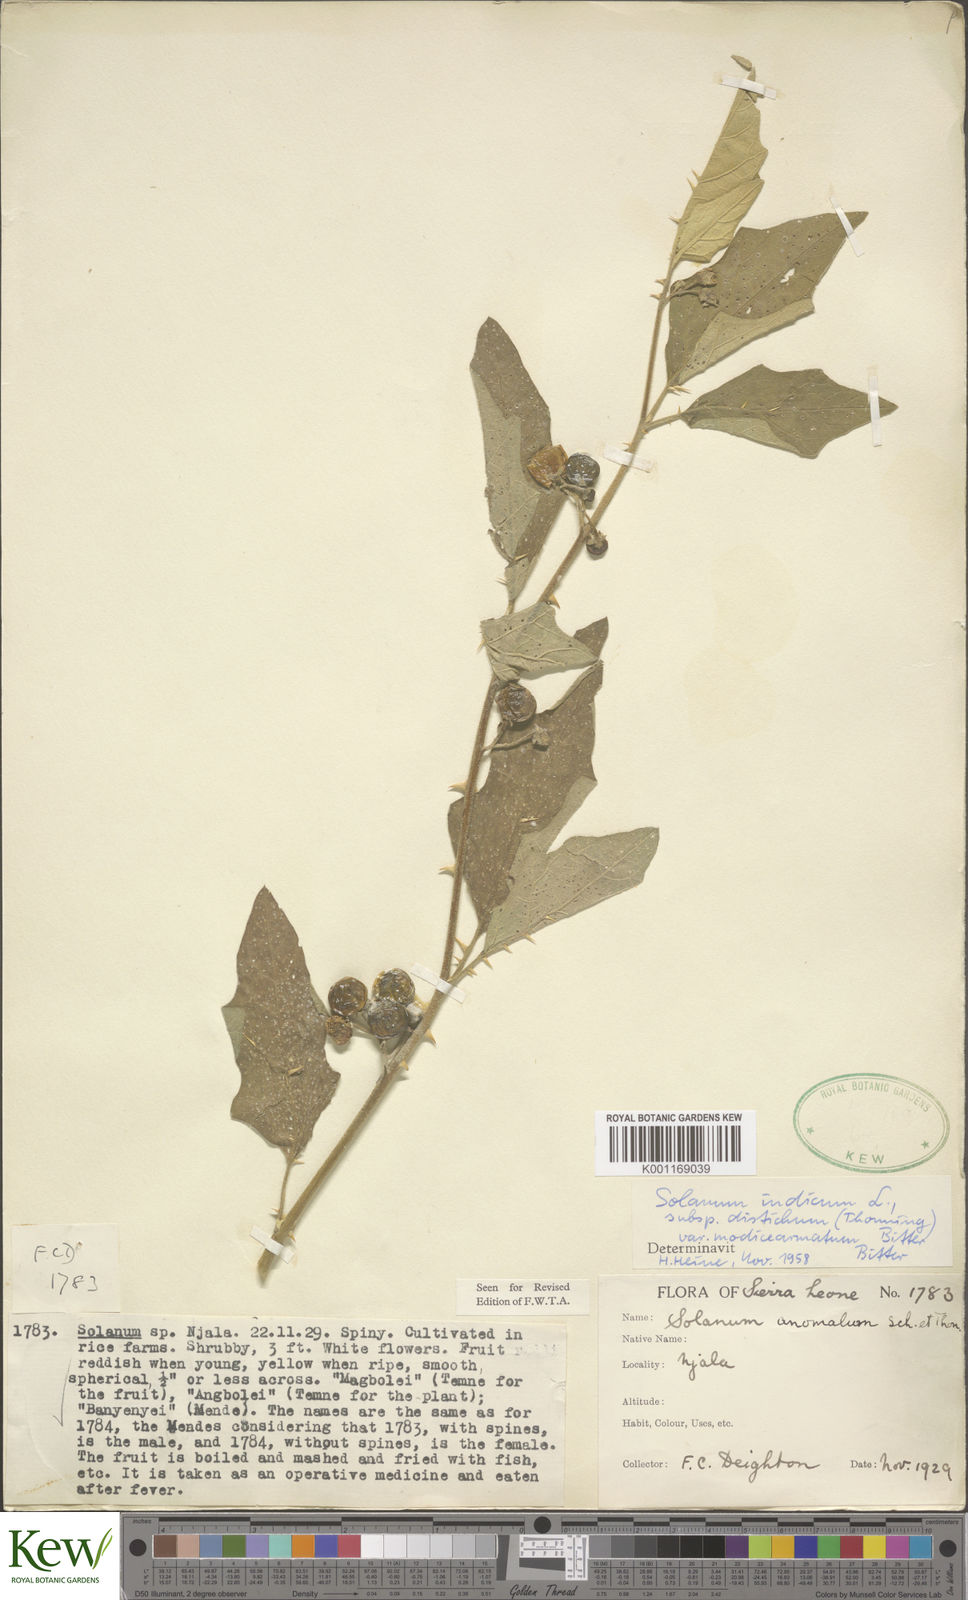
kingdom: Plantae
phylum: Tracheophyta
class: Magnoliopsida
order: Solanales
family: Solanaceae
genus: Solanum
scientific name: Solanum violaceum
